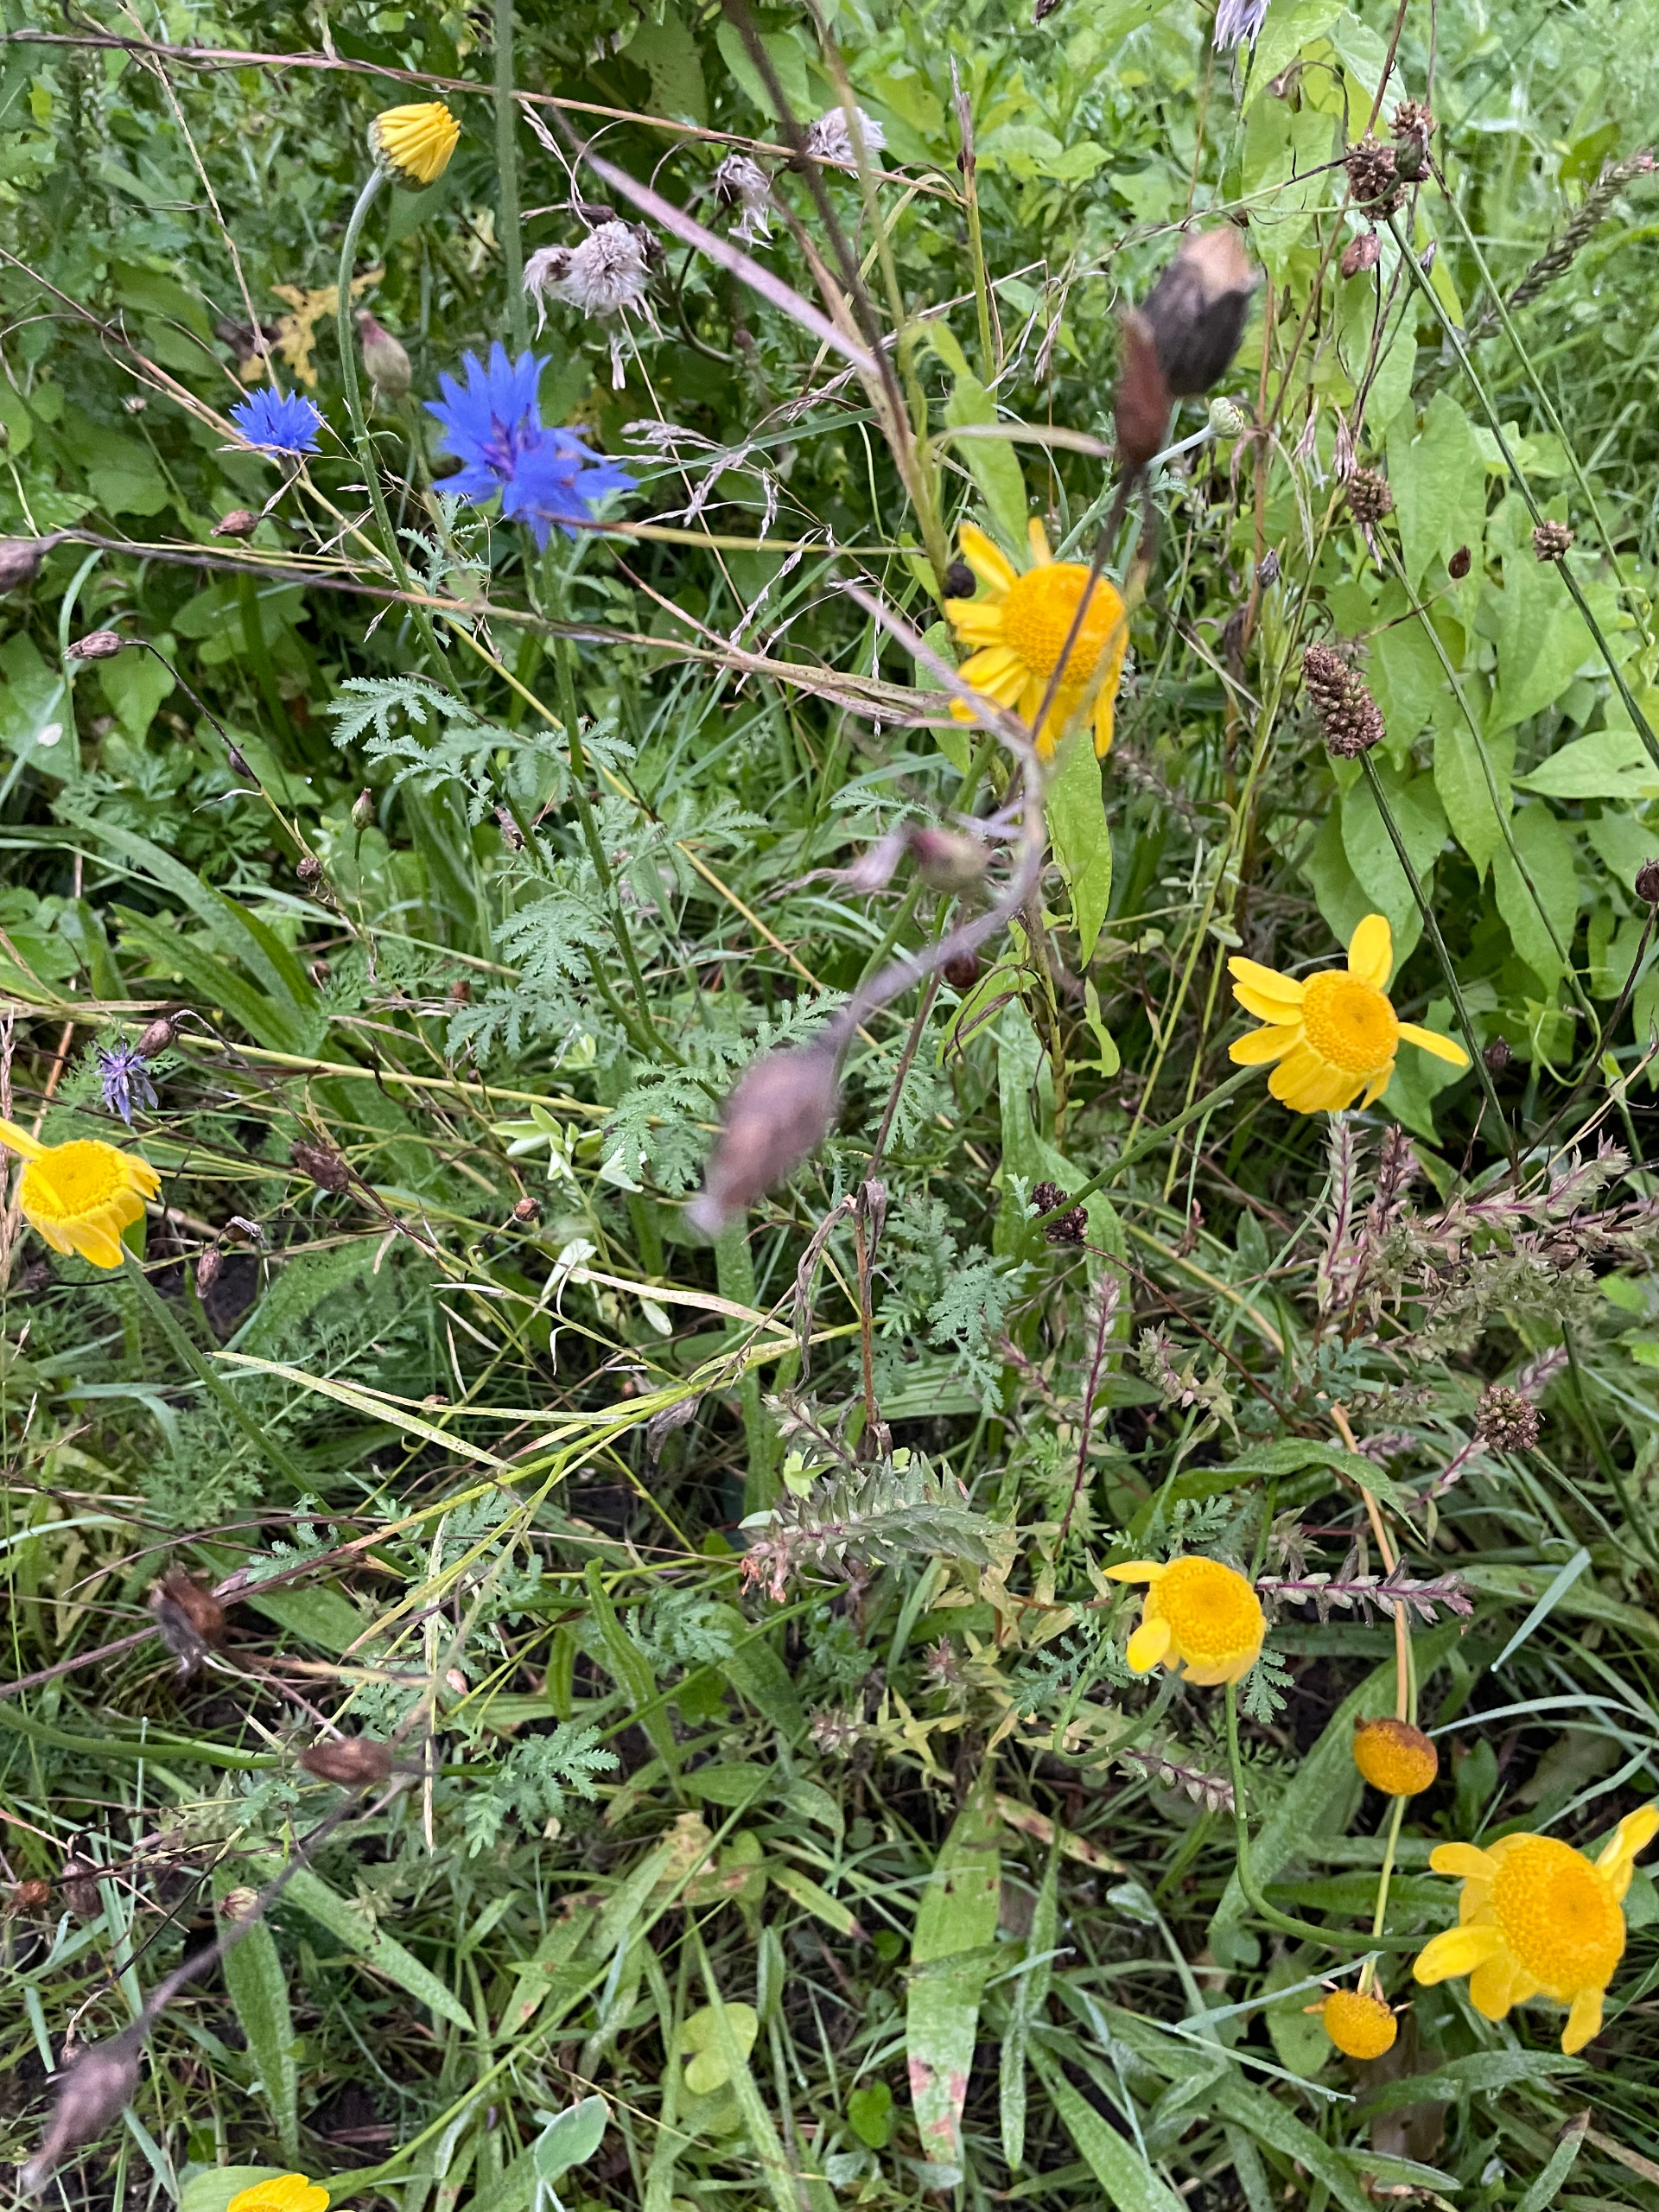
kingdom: Plantae
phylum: Tracheophyta
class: Magnoliopsida
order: Asterales
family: Asteraceae
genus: Cota
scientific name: Cota tinctoria
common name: Farve-gåseurt
